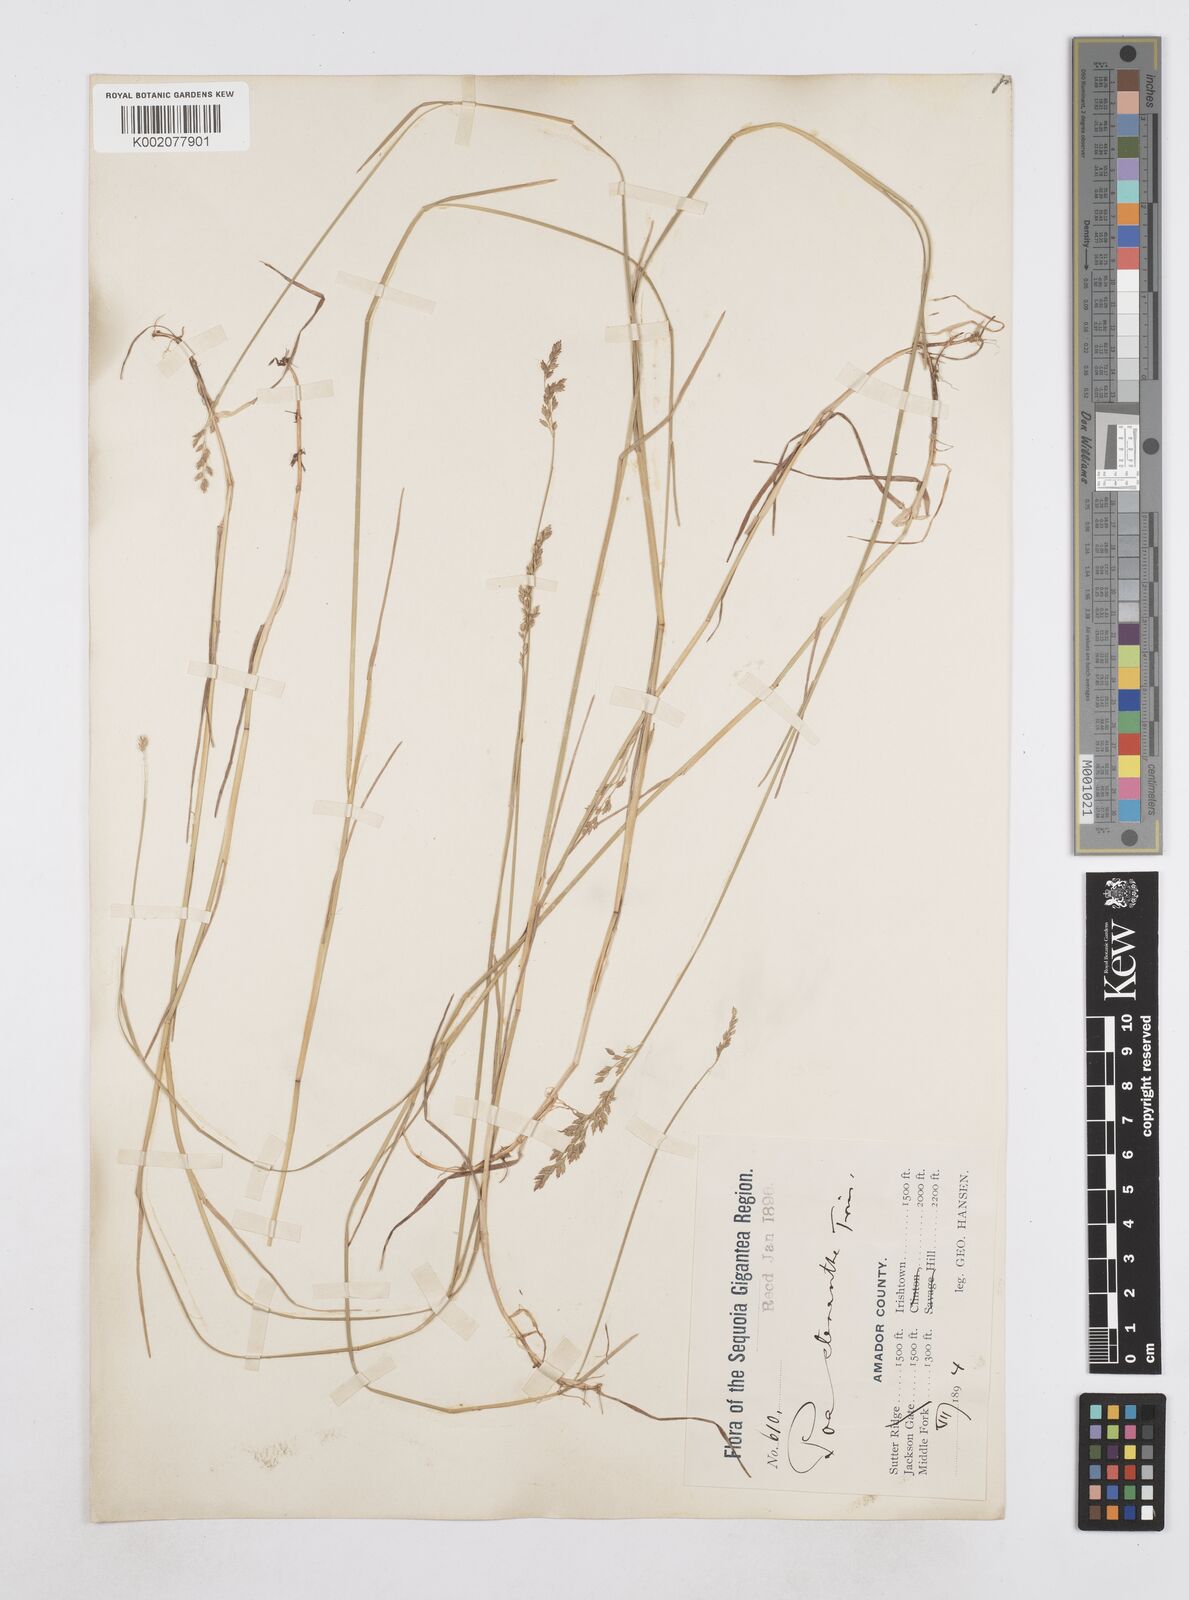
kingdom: Plantae
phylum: Tracheophyta
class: Liliopsida
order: Poales
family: Poaceae
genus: Poa
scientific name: Poa stenantha
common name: Narrow-flowered bluegrass
